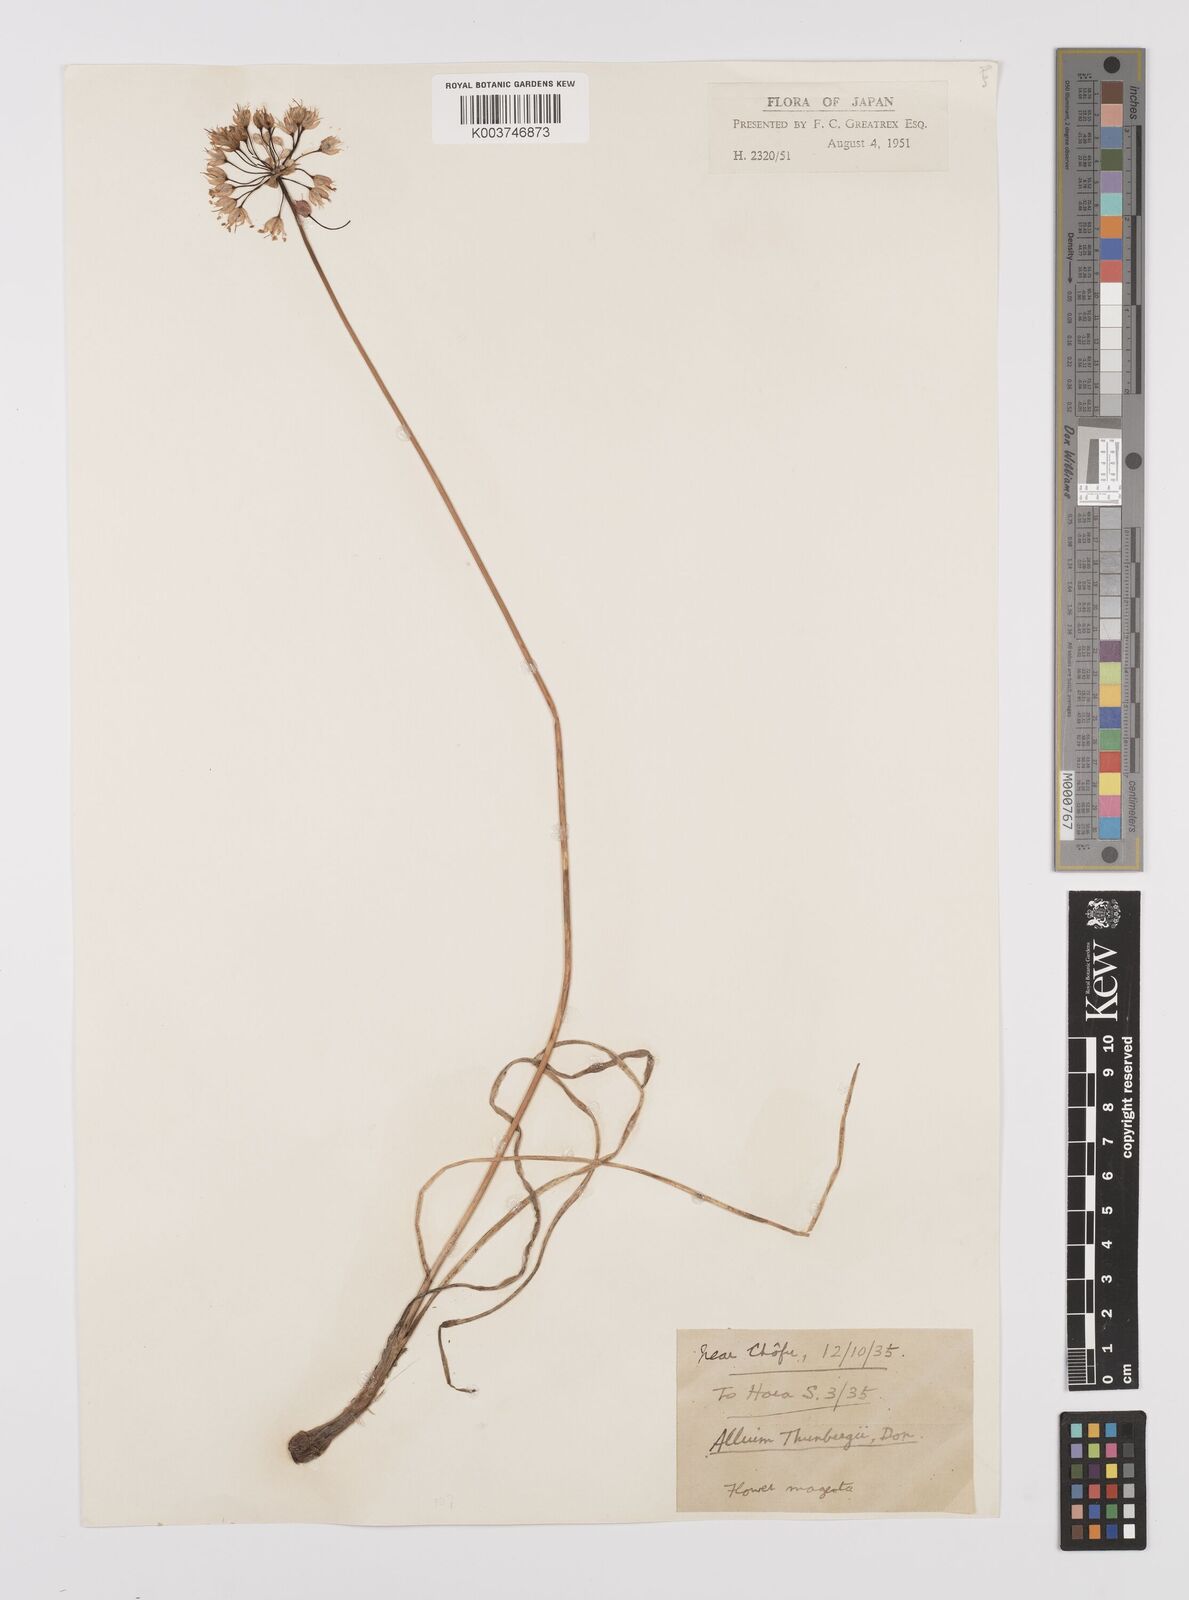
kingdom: Plantae
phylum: Tracheophyta
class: Liliopsida
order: Asparagales
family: Amaryllidaceae
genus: Allium
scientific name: Allium thunbergii
